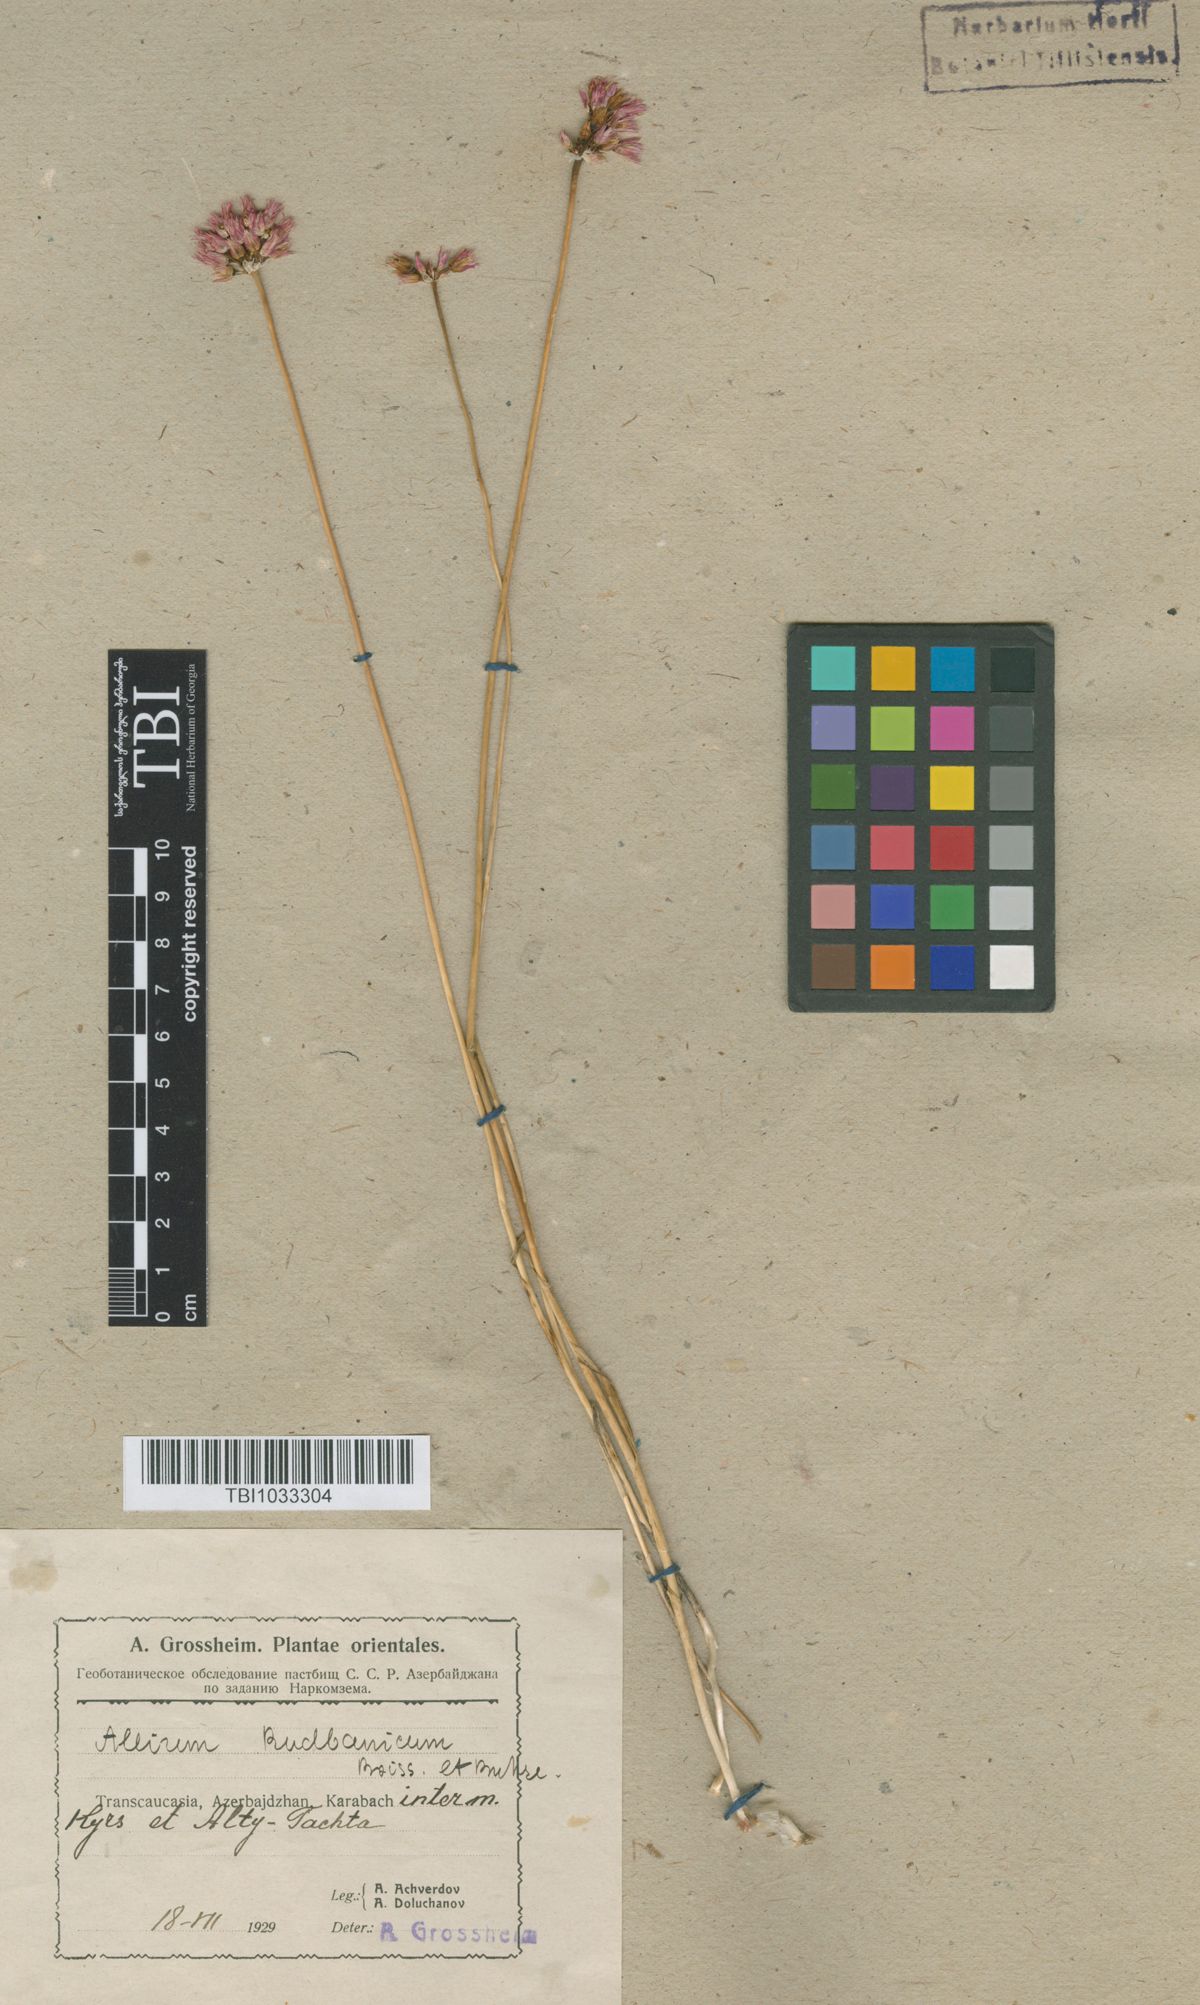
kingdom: Plantae
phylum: Tracheophyta
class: Liliopsida
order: Asparagales
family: Amaryllidaceae
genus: Allium
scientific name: Allium erubescens
